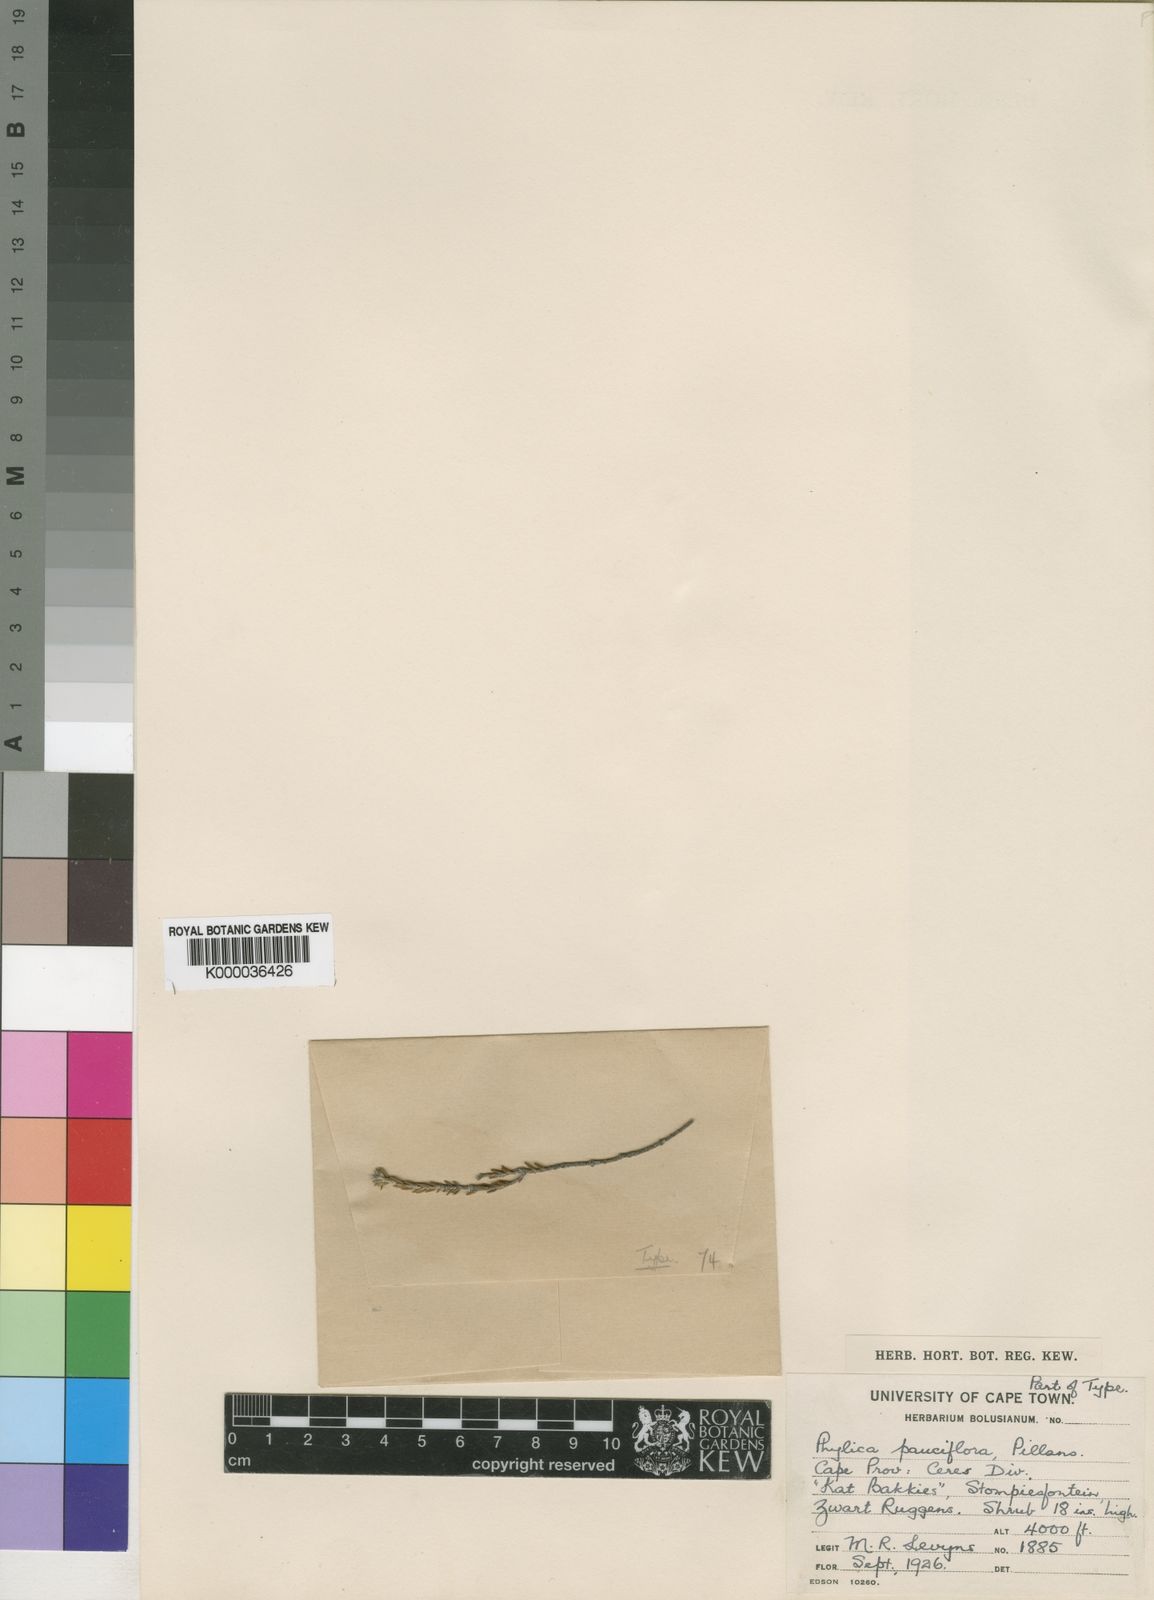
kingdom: Plantae
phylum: Tracheophyta
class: Magnoliopsida
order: Rosales
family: Rhamnaceae
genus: Phylica
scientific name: Phylica pauciflora
